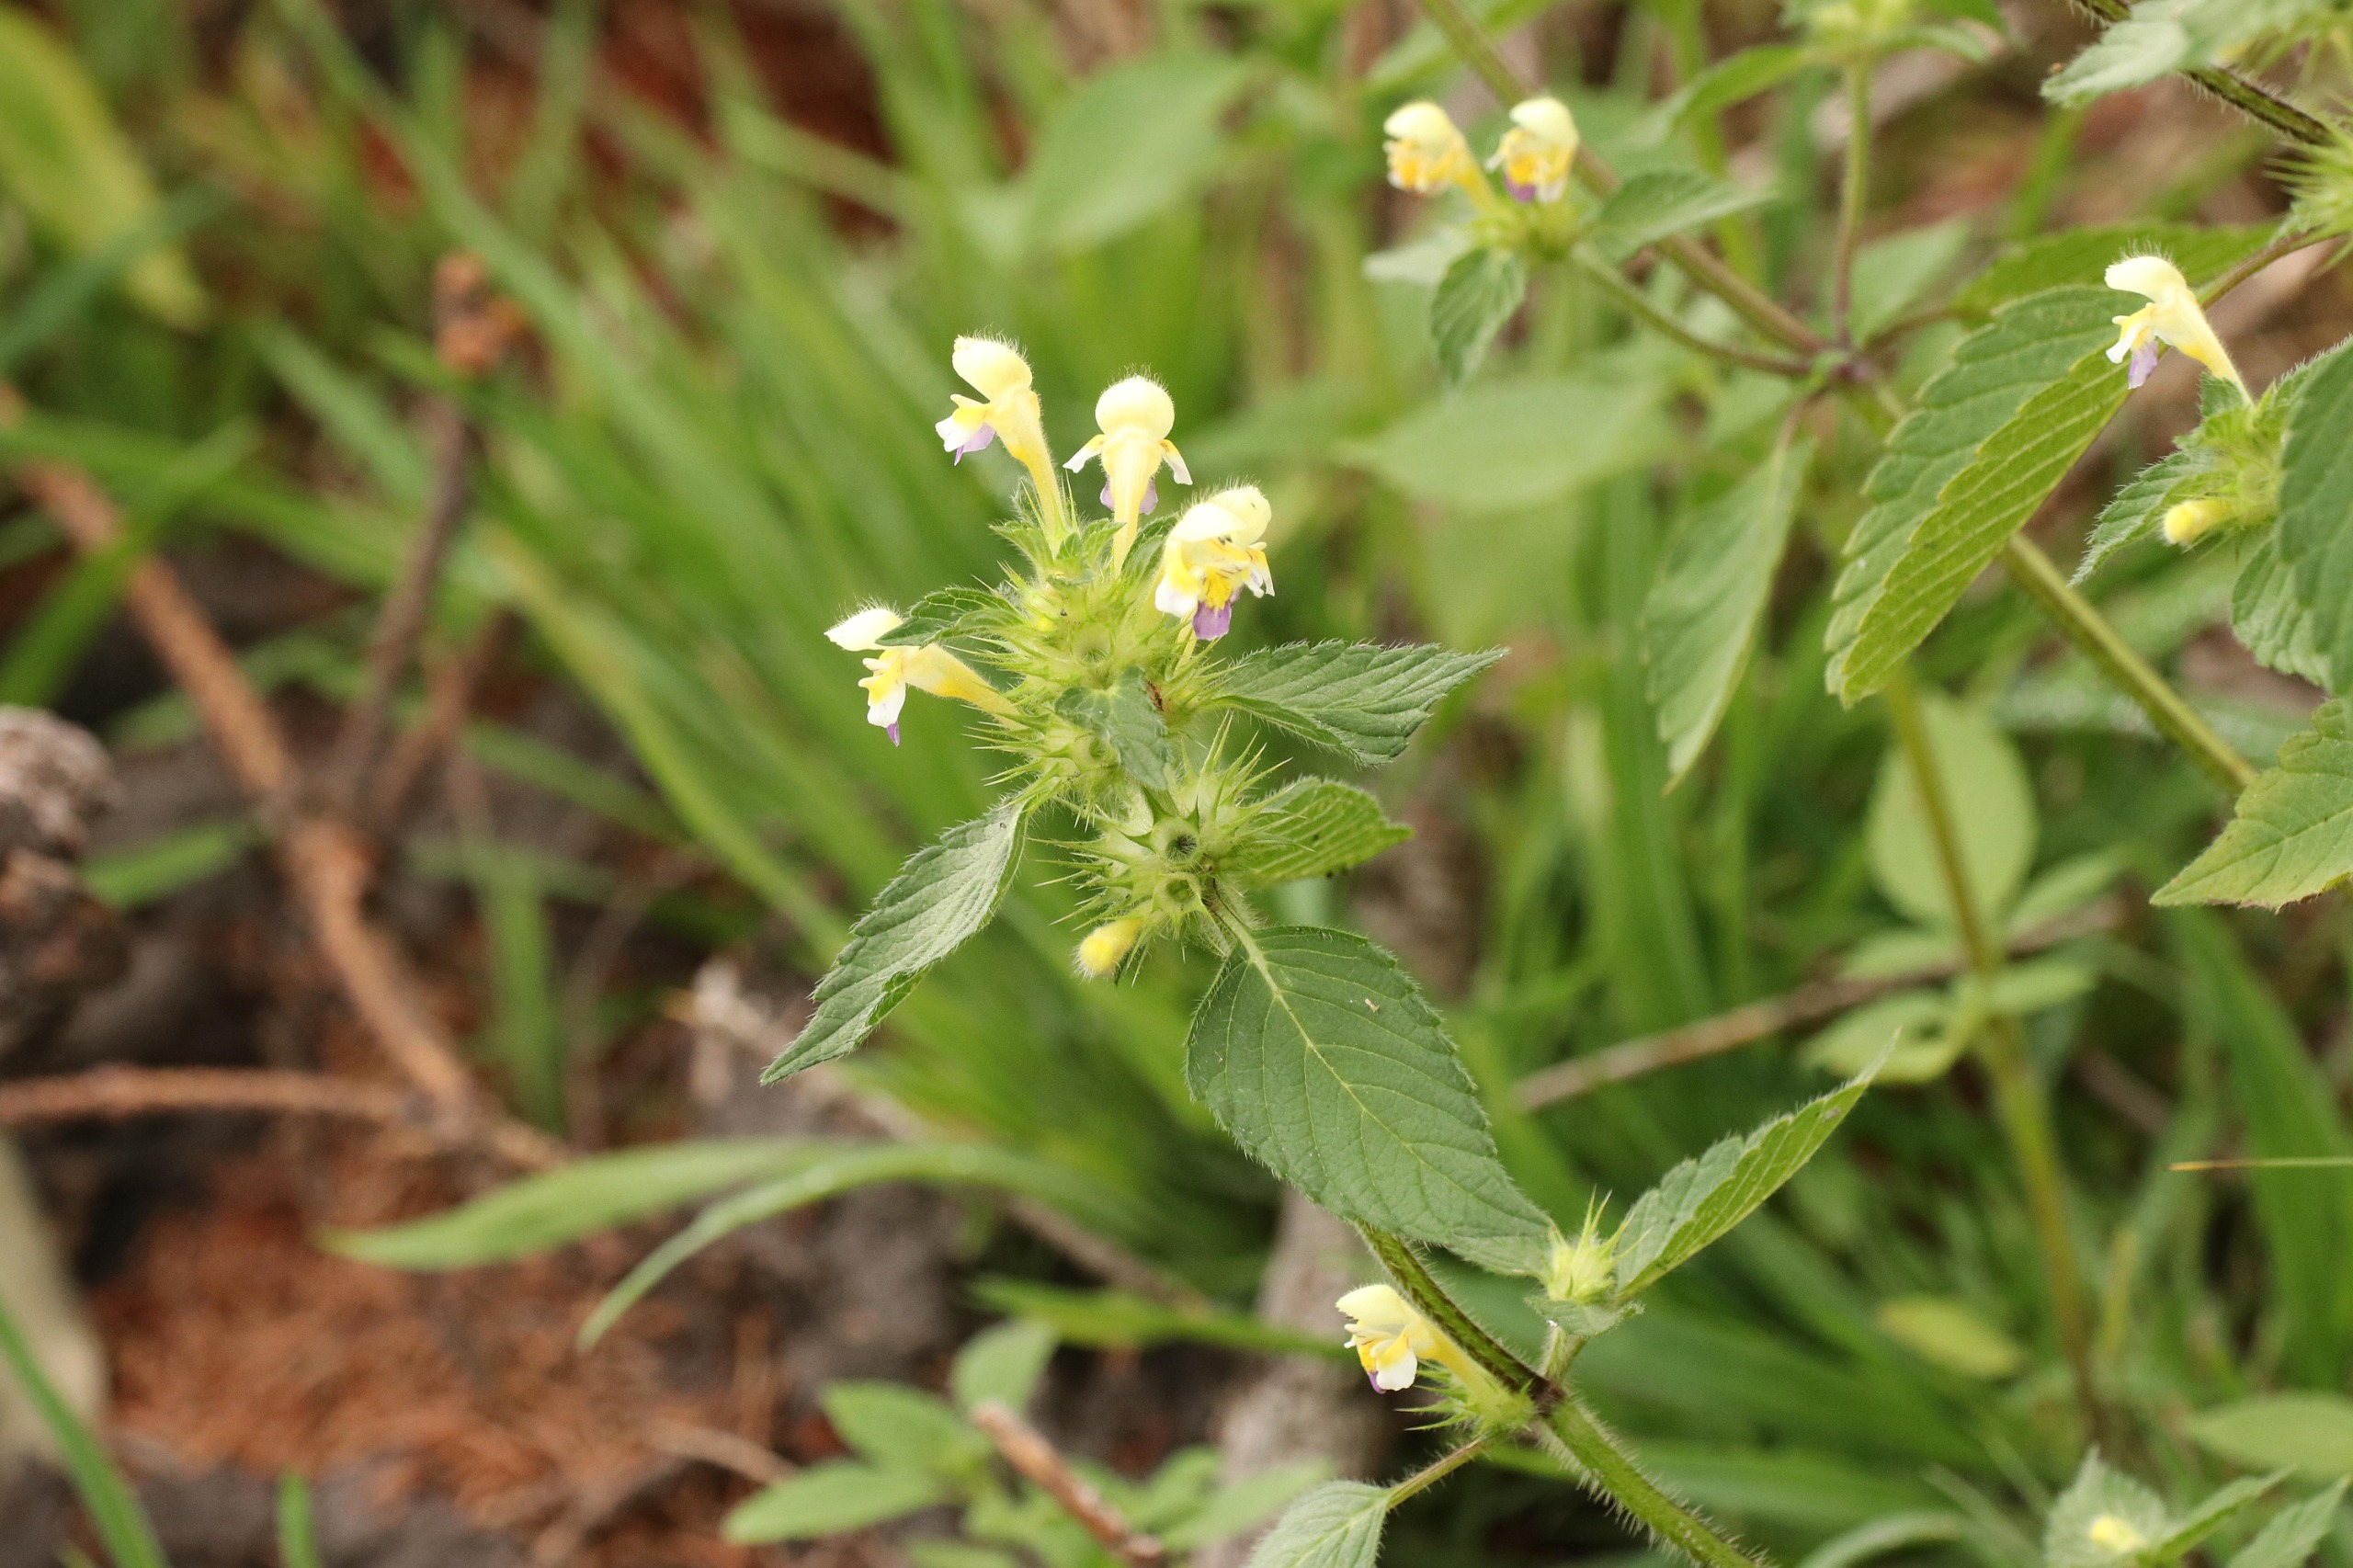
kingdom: Plantae
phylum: Tracheophyta
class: Magnoliopsida
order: Lamiales
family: Lamiaceae
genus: Galeopsis
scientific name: Galeopsis speciosa
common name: Hamp-hanekro
